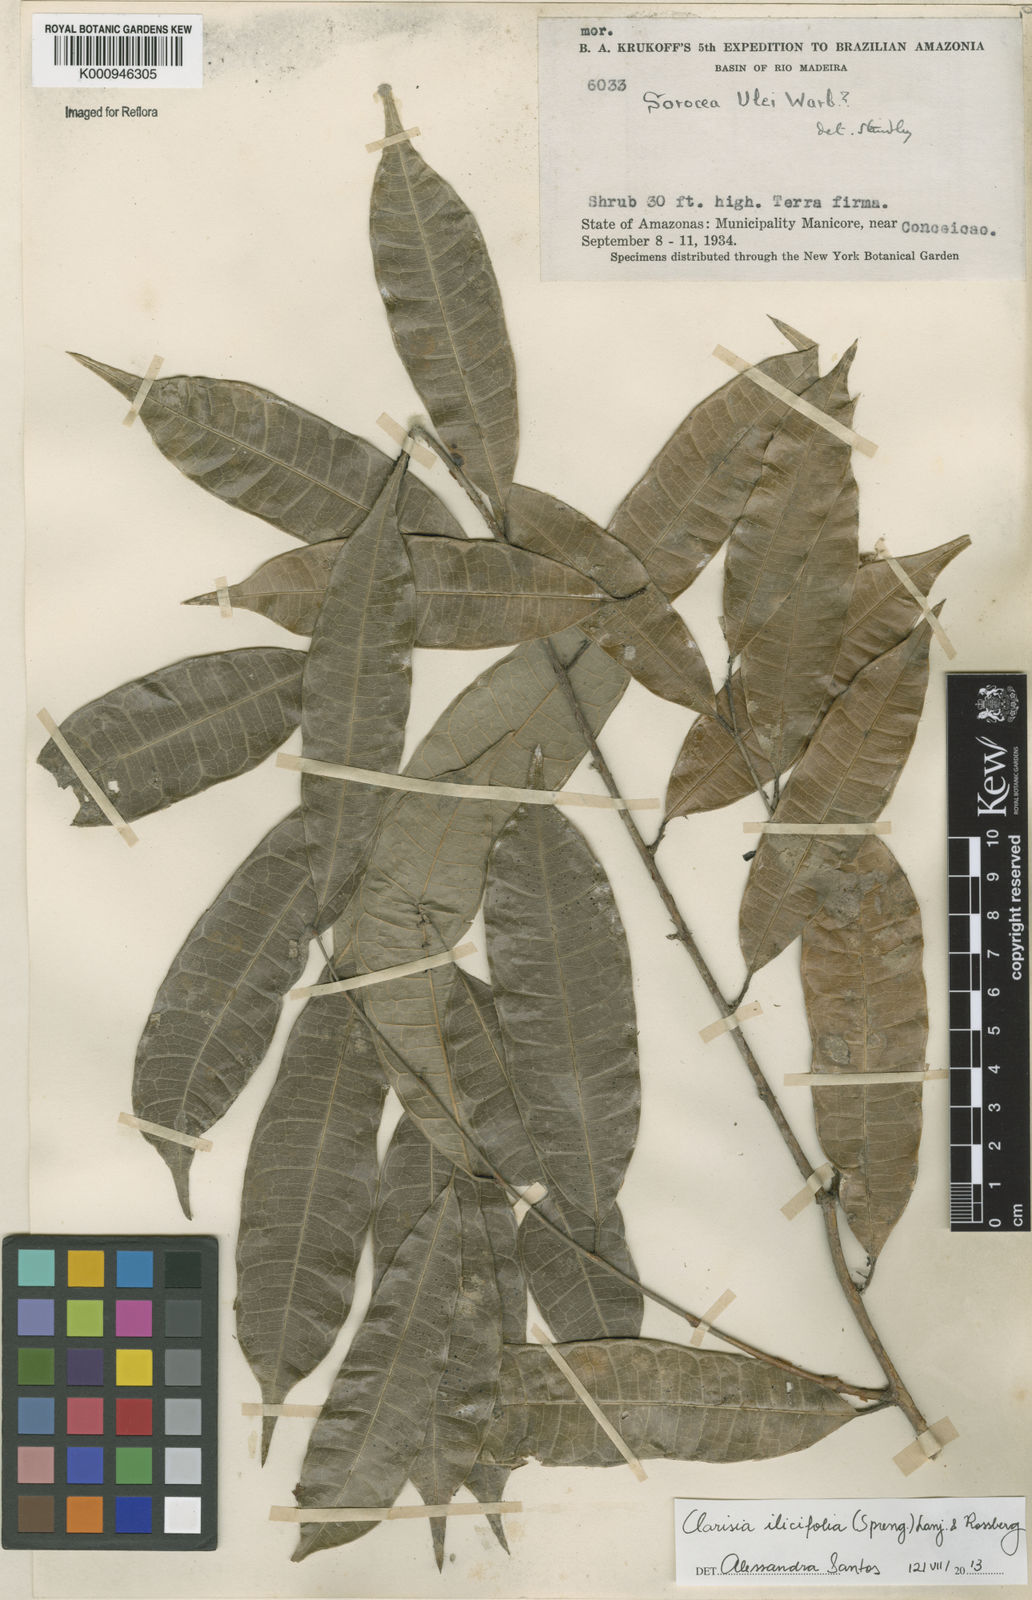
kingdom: Plantae
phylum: Tracheophyta
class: Magnoliopsida
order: Rosales
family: Moraceae
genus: Clarisia
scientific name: Clarisia ilicifolia
